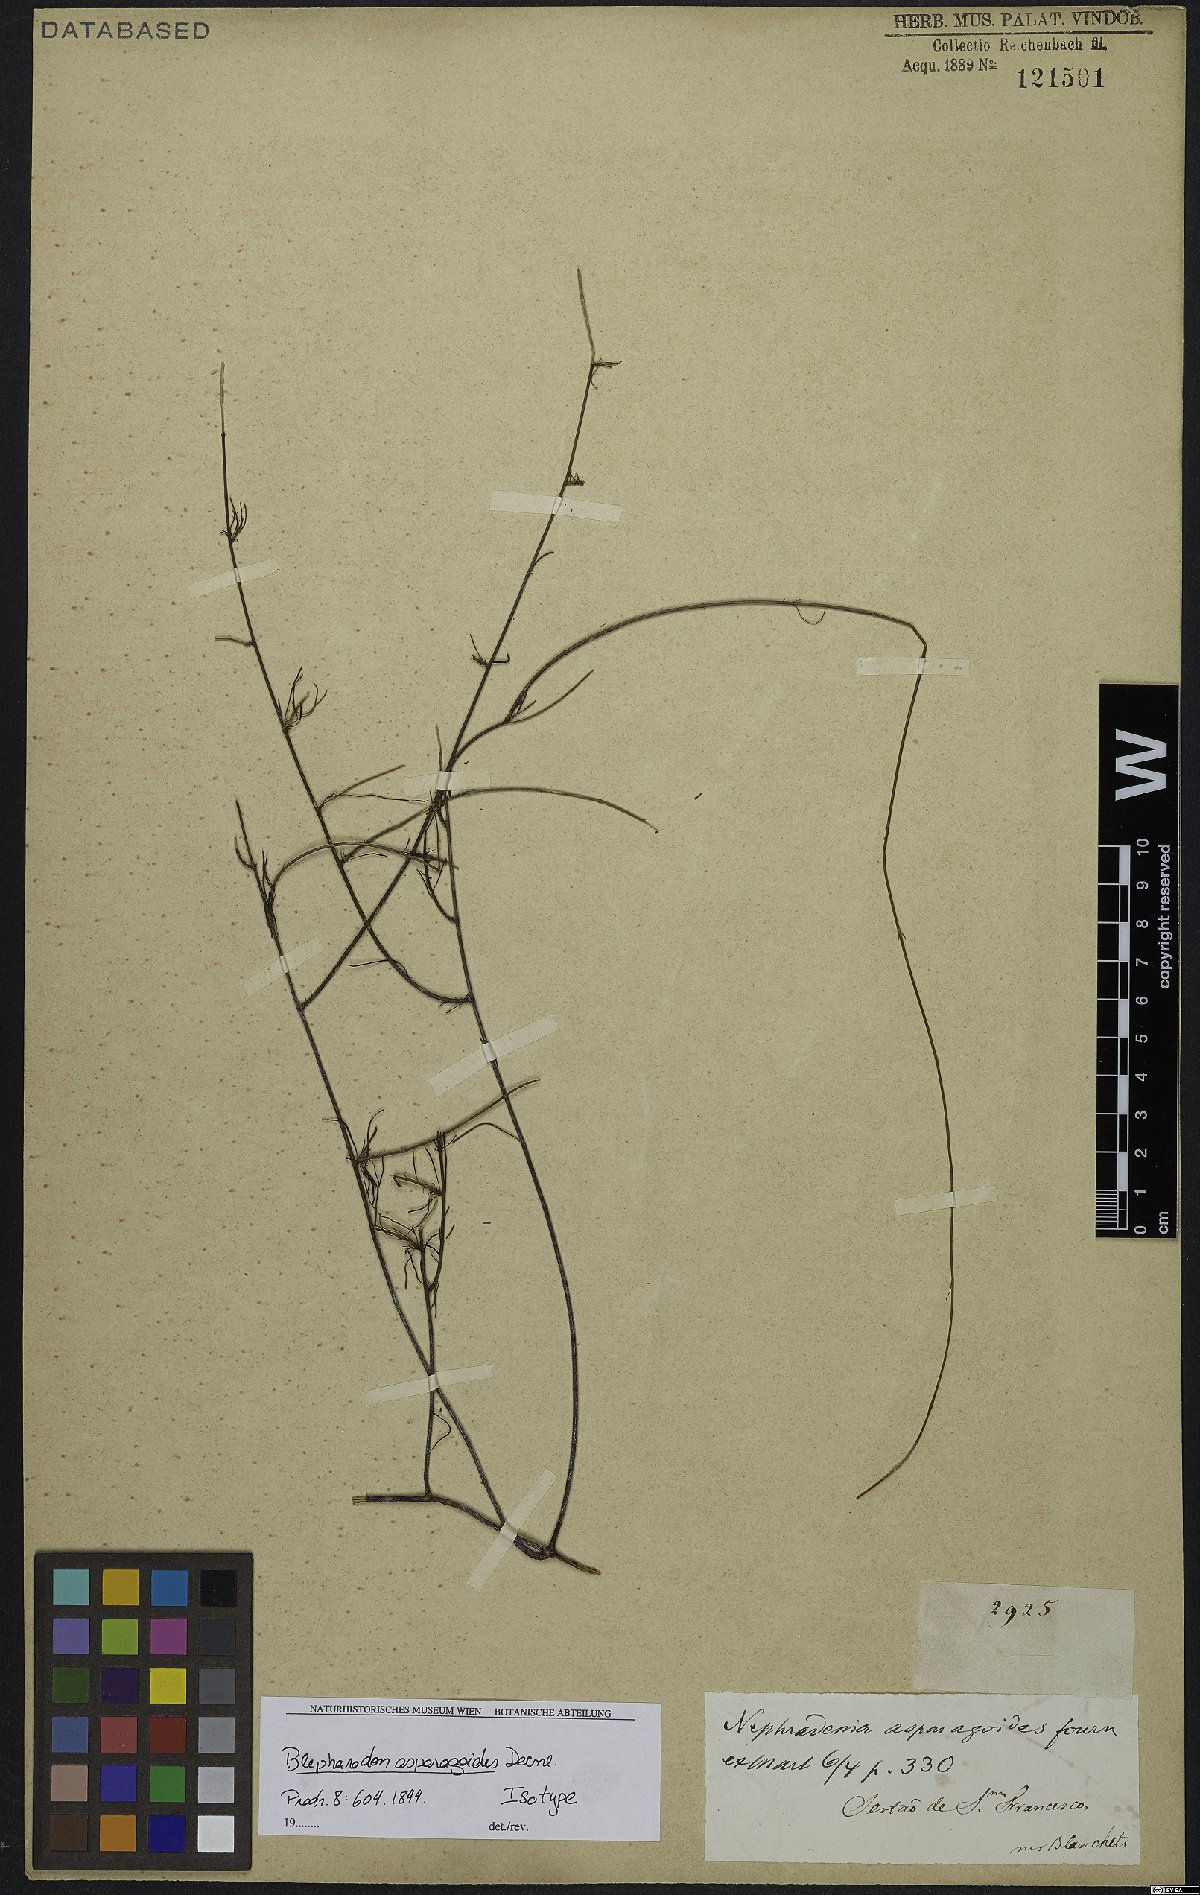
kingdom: Plantae
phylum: Tracheophyta
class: Magnoliopsida
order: Gentianales
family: Apocynaceae
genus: Nephradenia
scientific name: Nephradenia asparagoides
